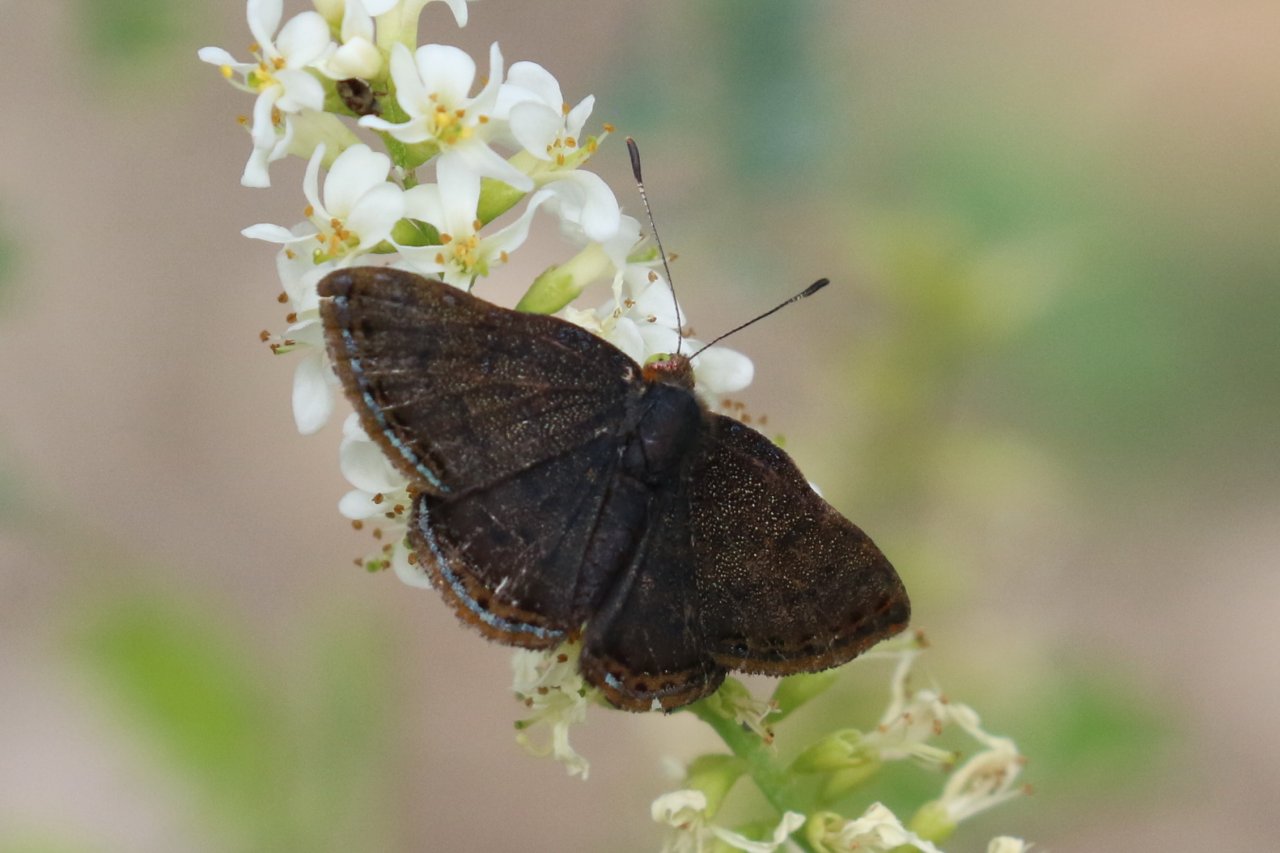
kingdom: Animalia
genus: Caria
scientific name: Caria ino
